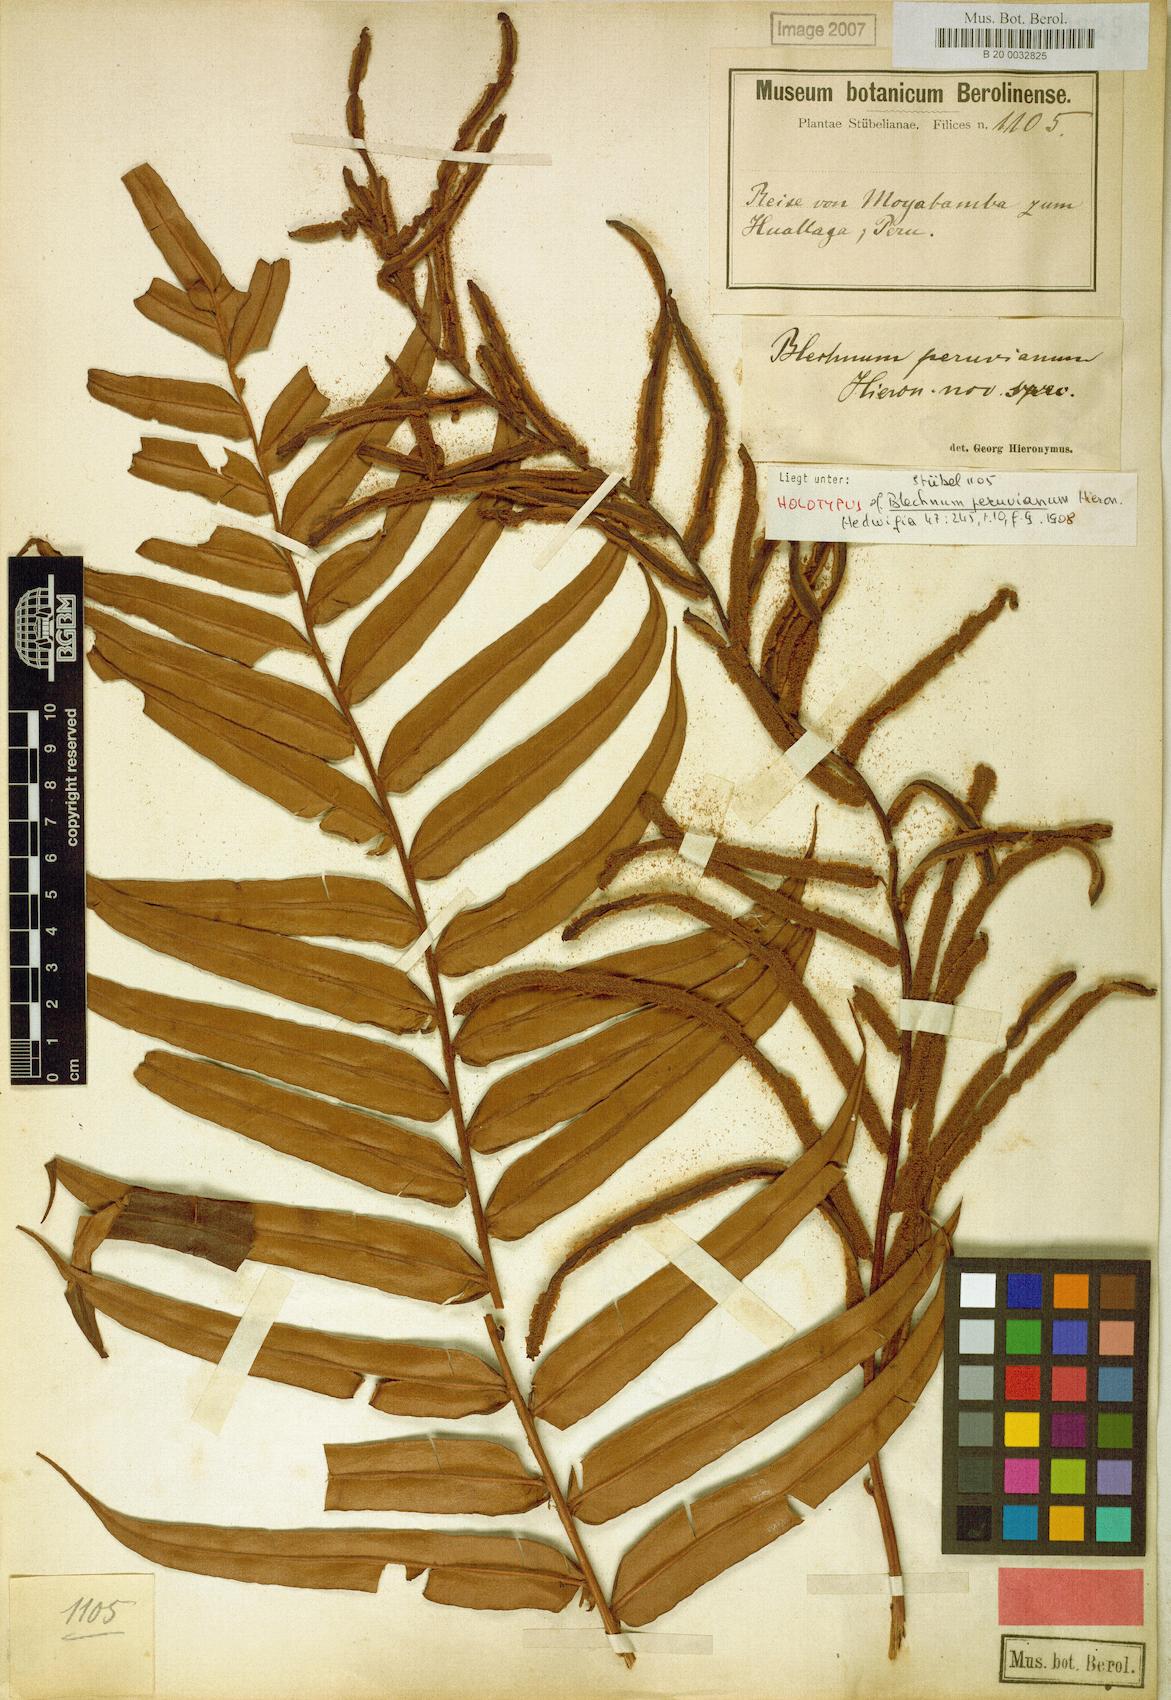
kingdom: Plantae
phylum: Tracheophyta
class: Polypodiopsida
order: Polypodiales
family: Blechnaceae
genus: Parablechnum
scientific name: Parablechnum cordatum
